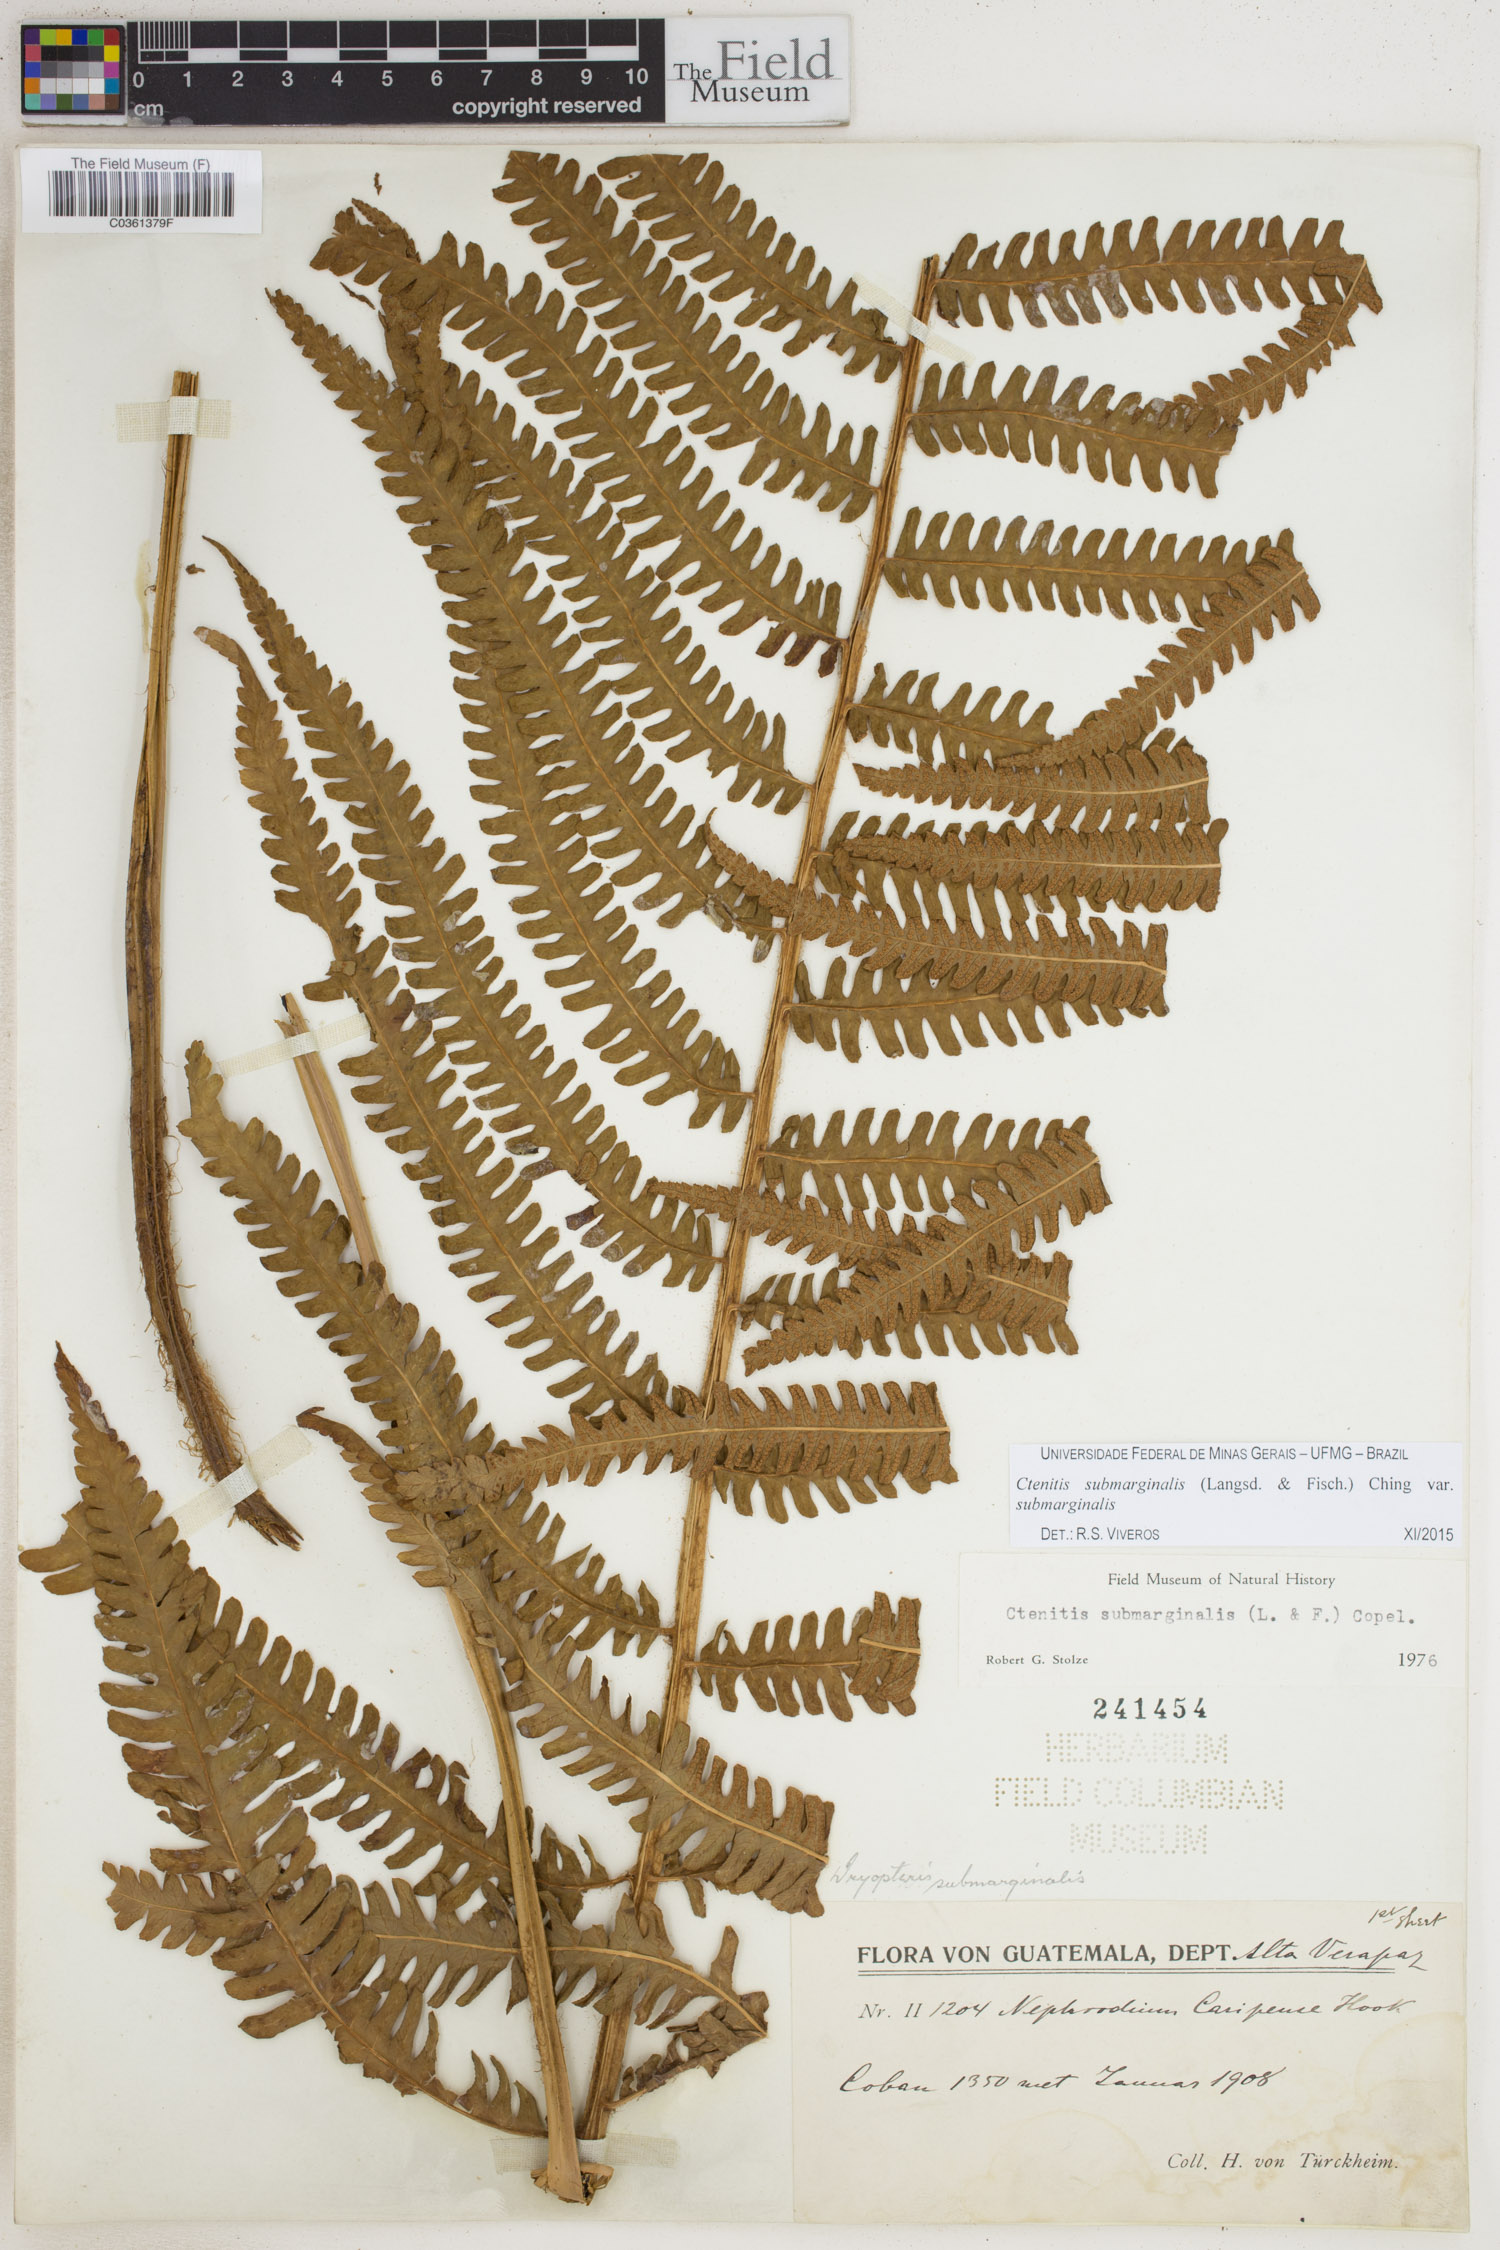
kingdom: Plantae
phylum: Tracheophyta
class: Polypodiopsida
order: Polypodiales
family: Dryopteridaceae
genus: Ctenitis
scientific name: Ctenitis submarginalis
